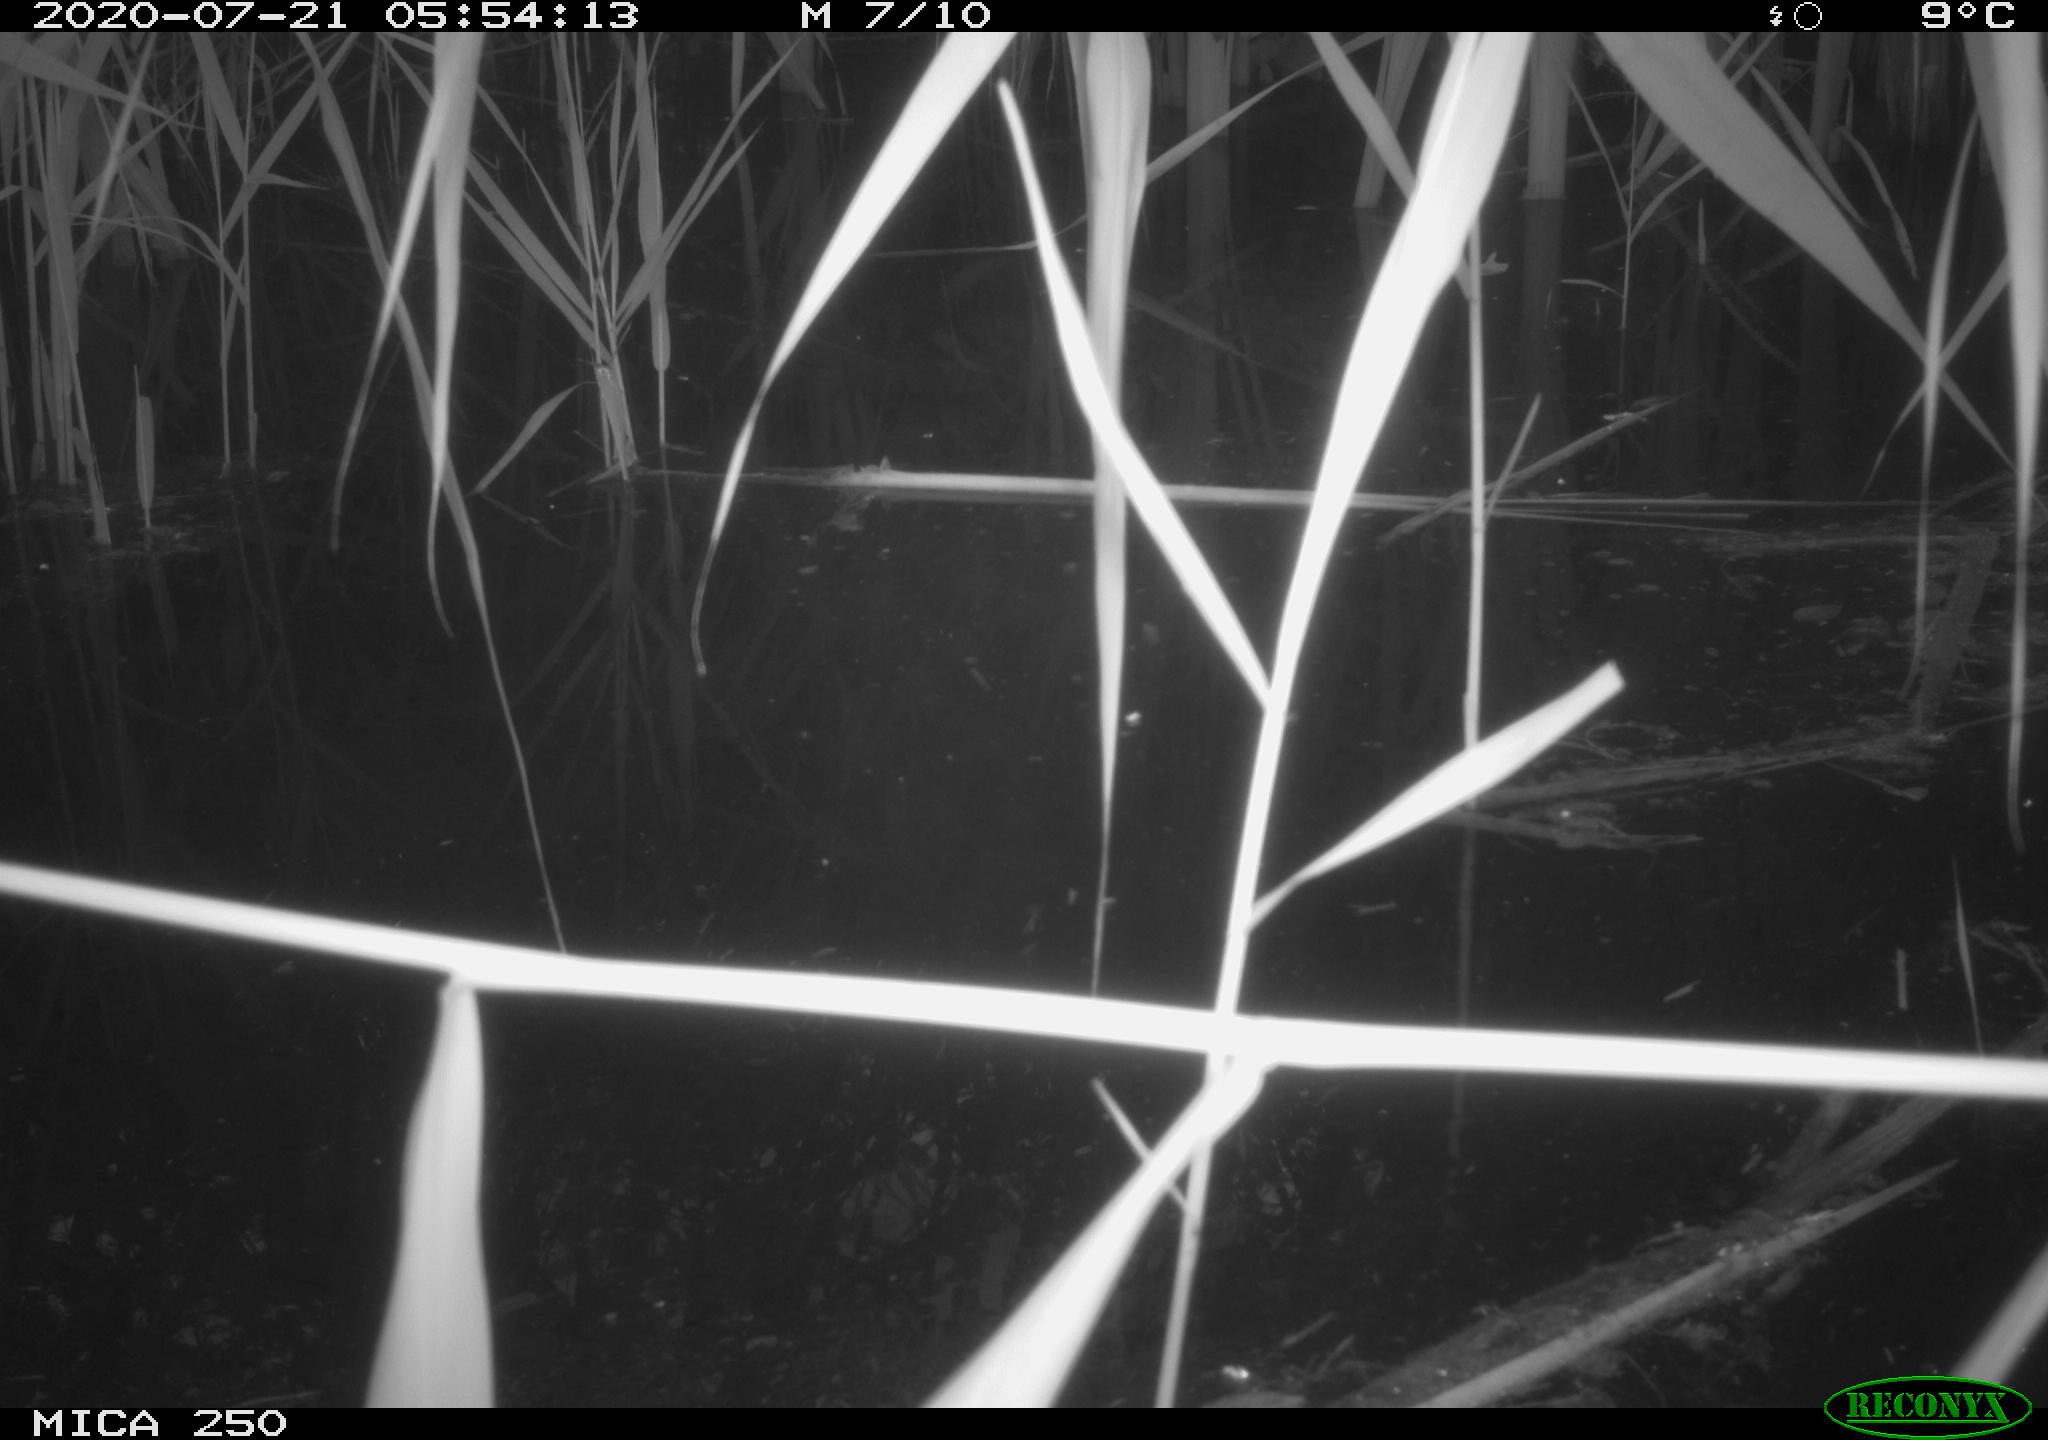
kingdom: Animalia
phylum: Chordata
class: Aves
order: Passeriformes
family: Acrocephalidae
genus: Acrocephalus
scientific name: Acrocephalus schoenobaenus
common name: Sedge warbler
